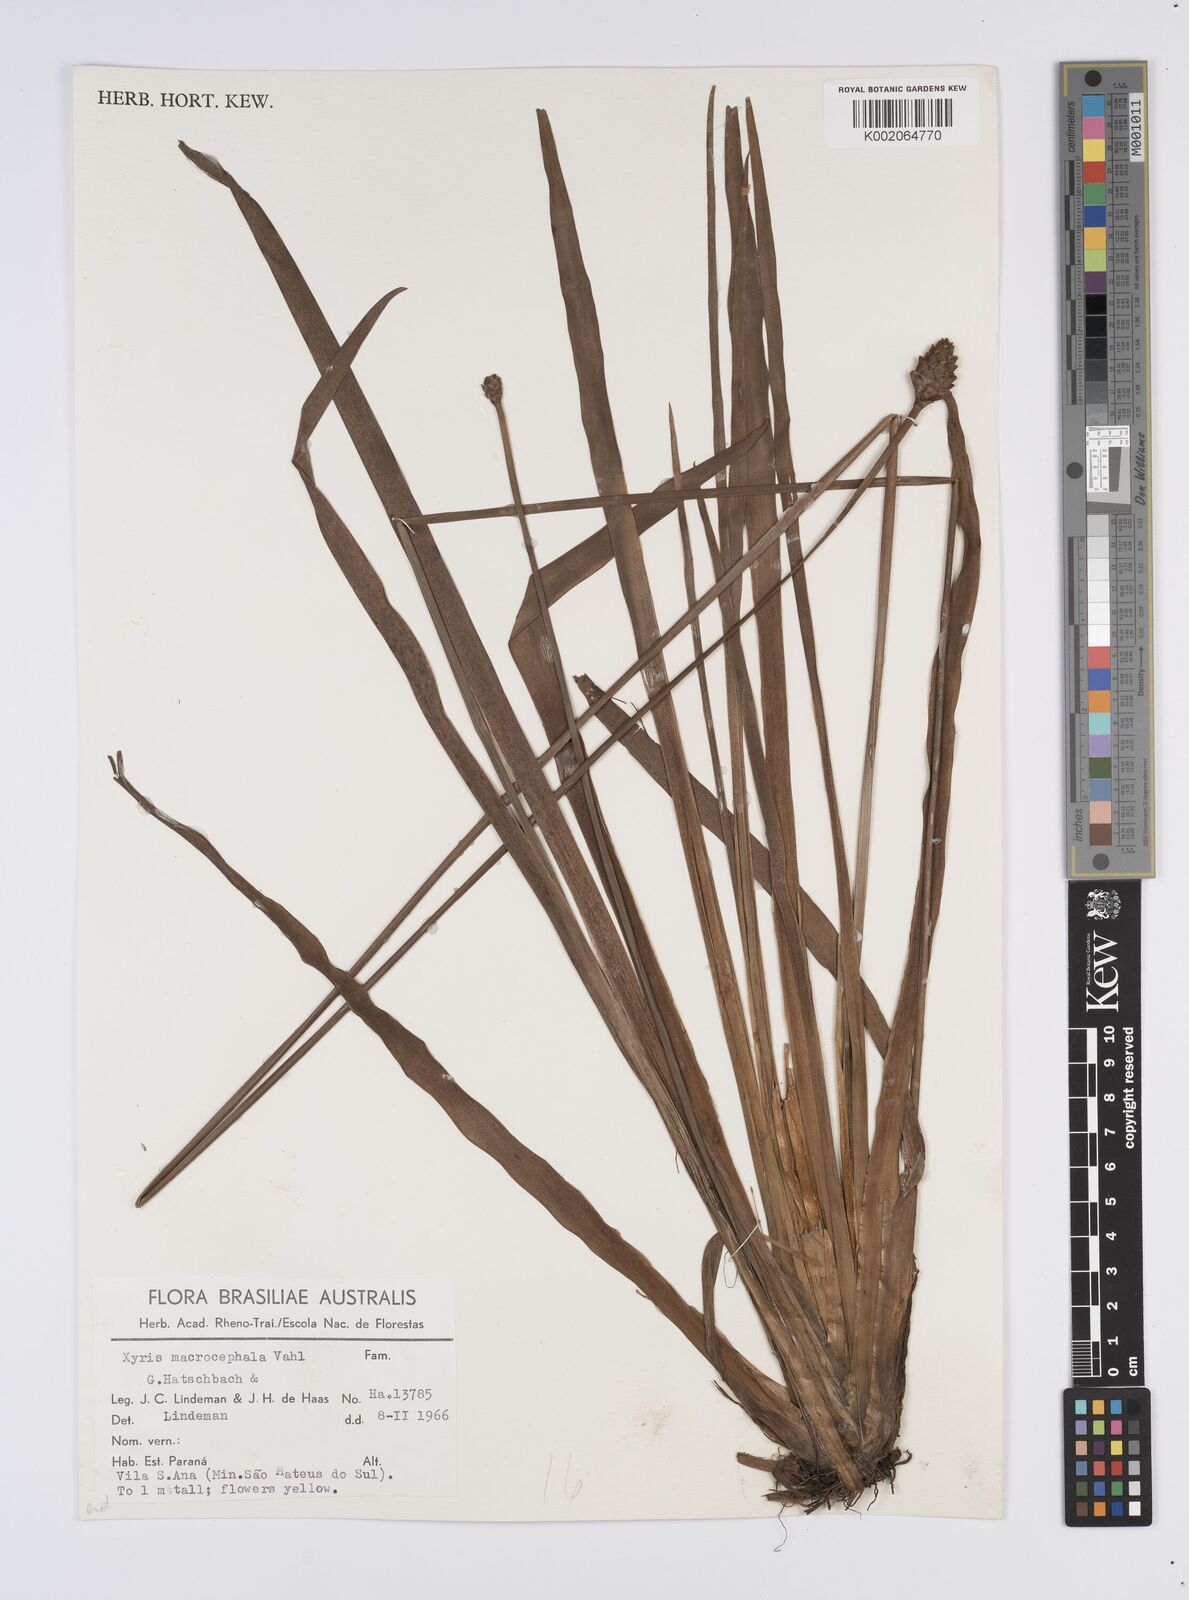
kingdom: Plantae
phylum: Tracheophyta
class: Liliopsida
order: Poales
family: Xyridaceae
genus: Xyris
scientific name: Xyris jupicai
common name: Richard's yelloweyed grass
